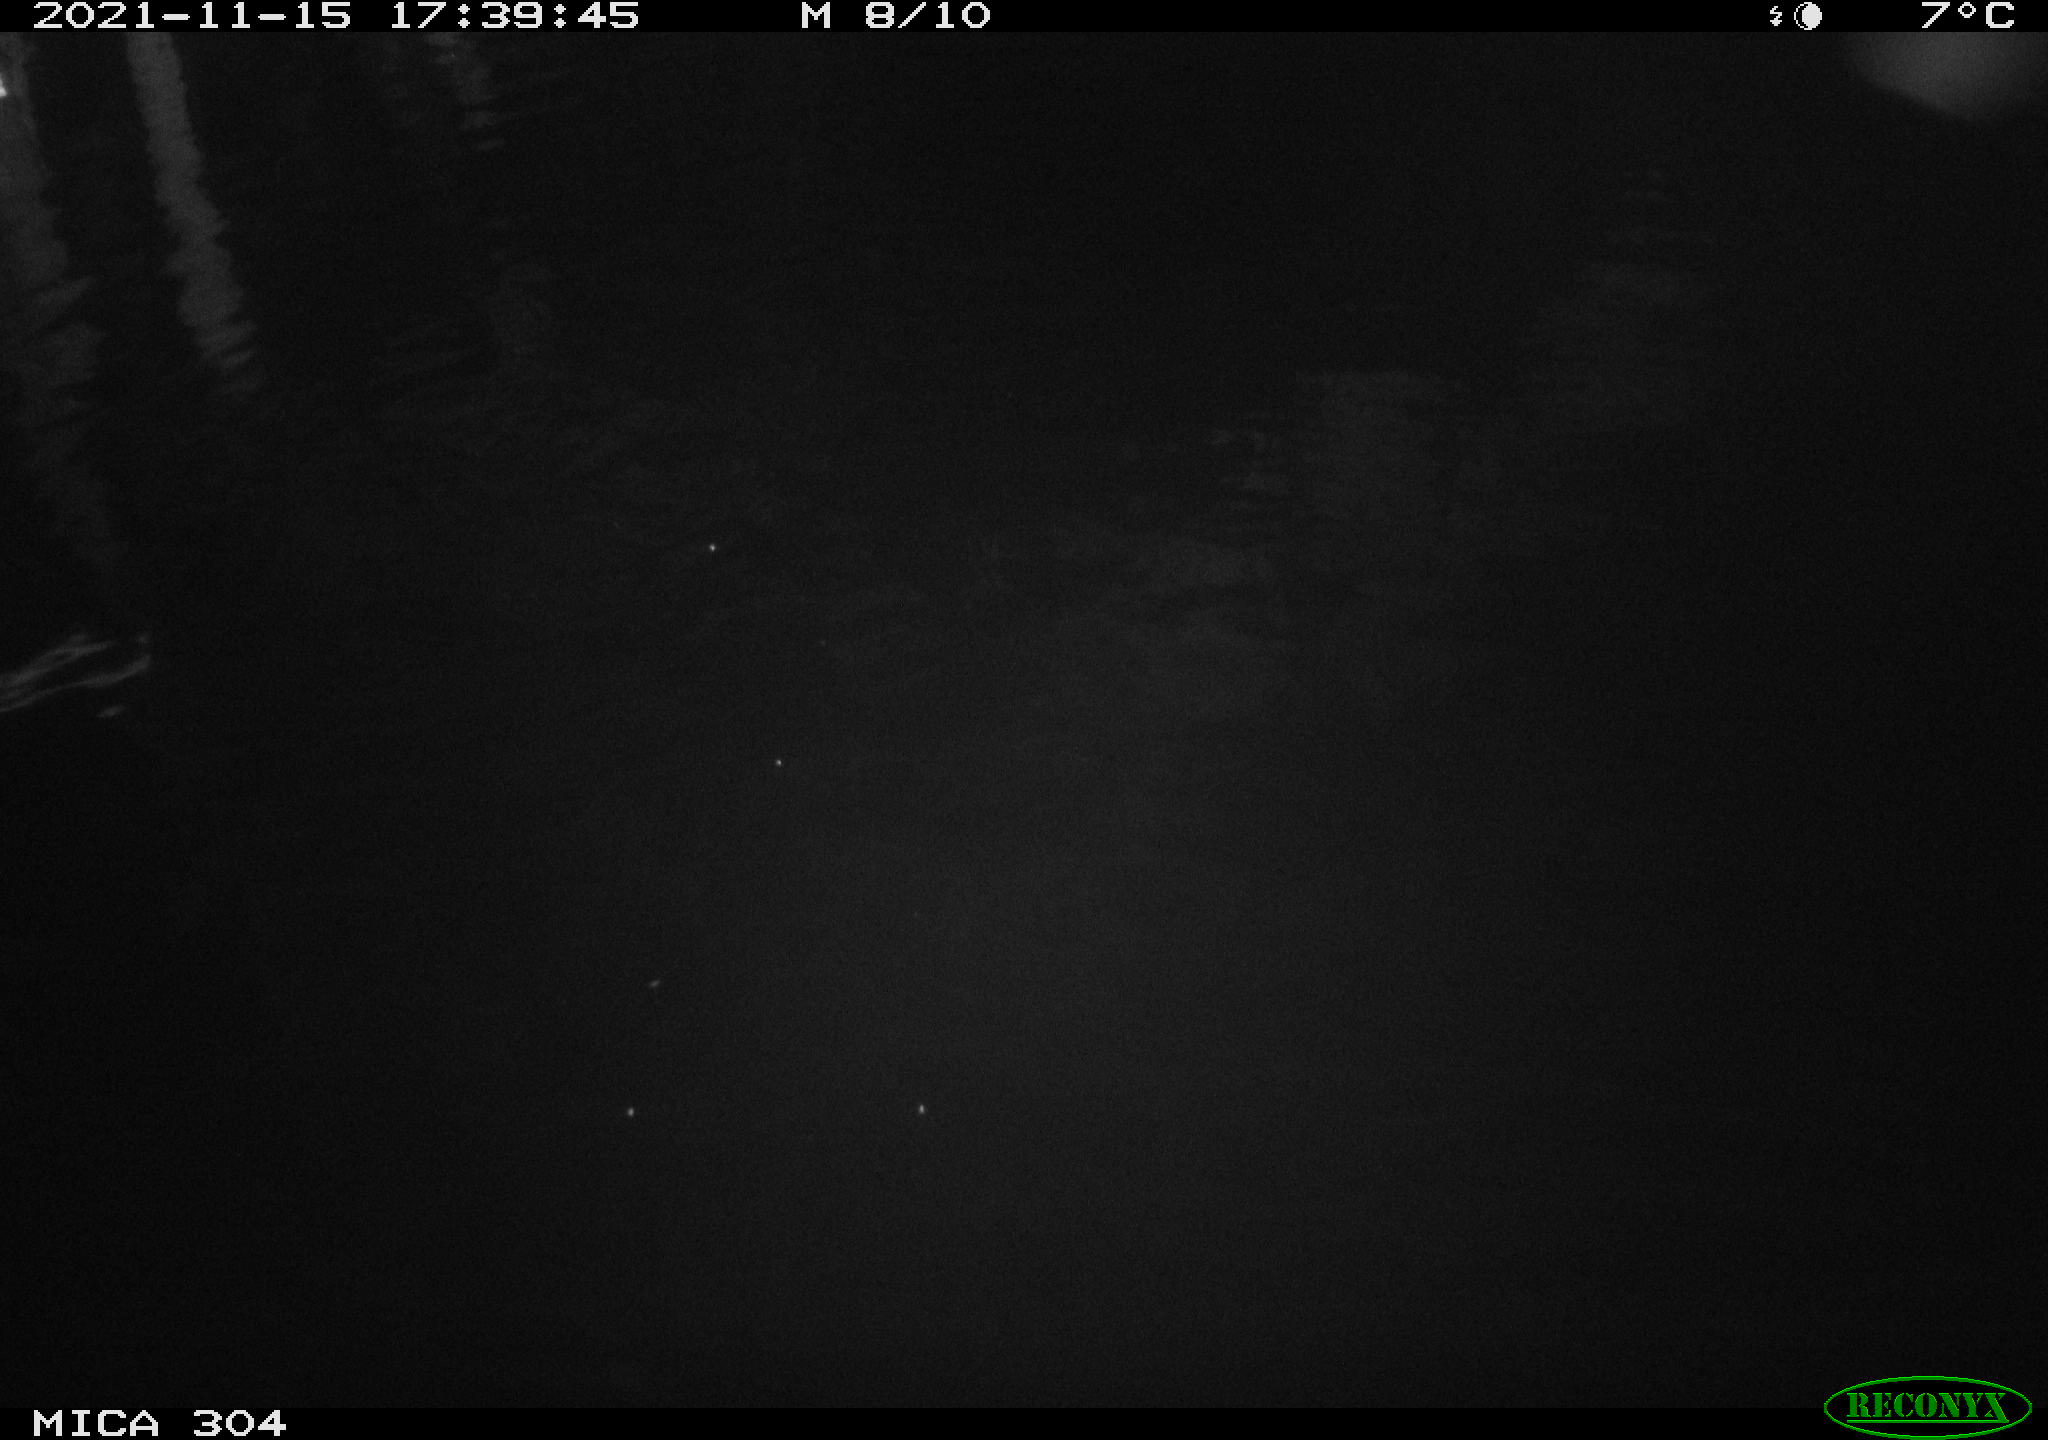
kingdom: Animalia
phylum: Chordata
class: Aves
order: Gruiformes
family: Rallidae
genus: Fulica
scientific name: Fulica atra
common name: Eurasian coot
